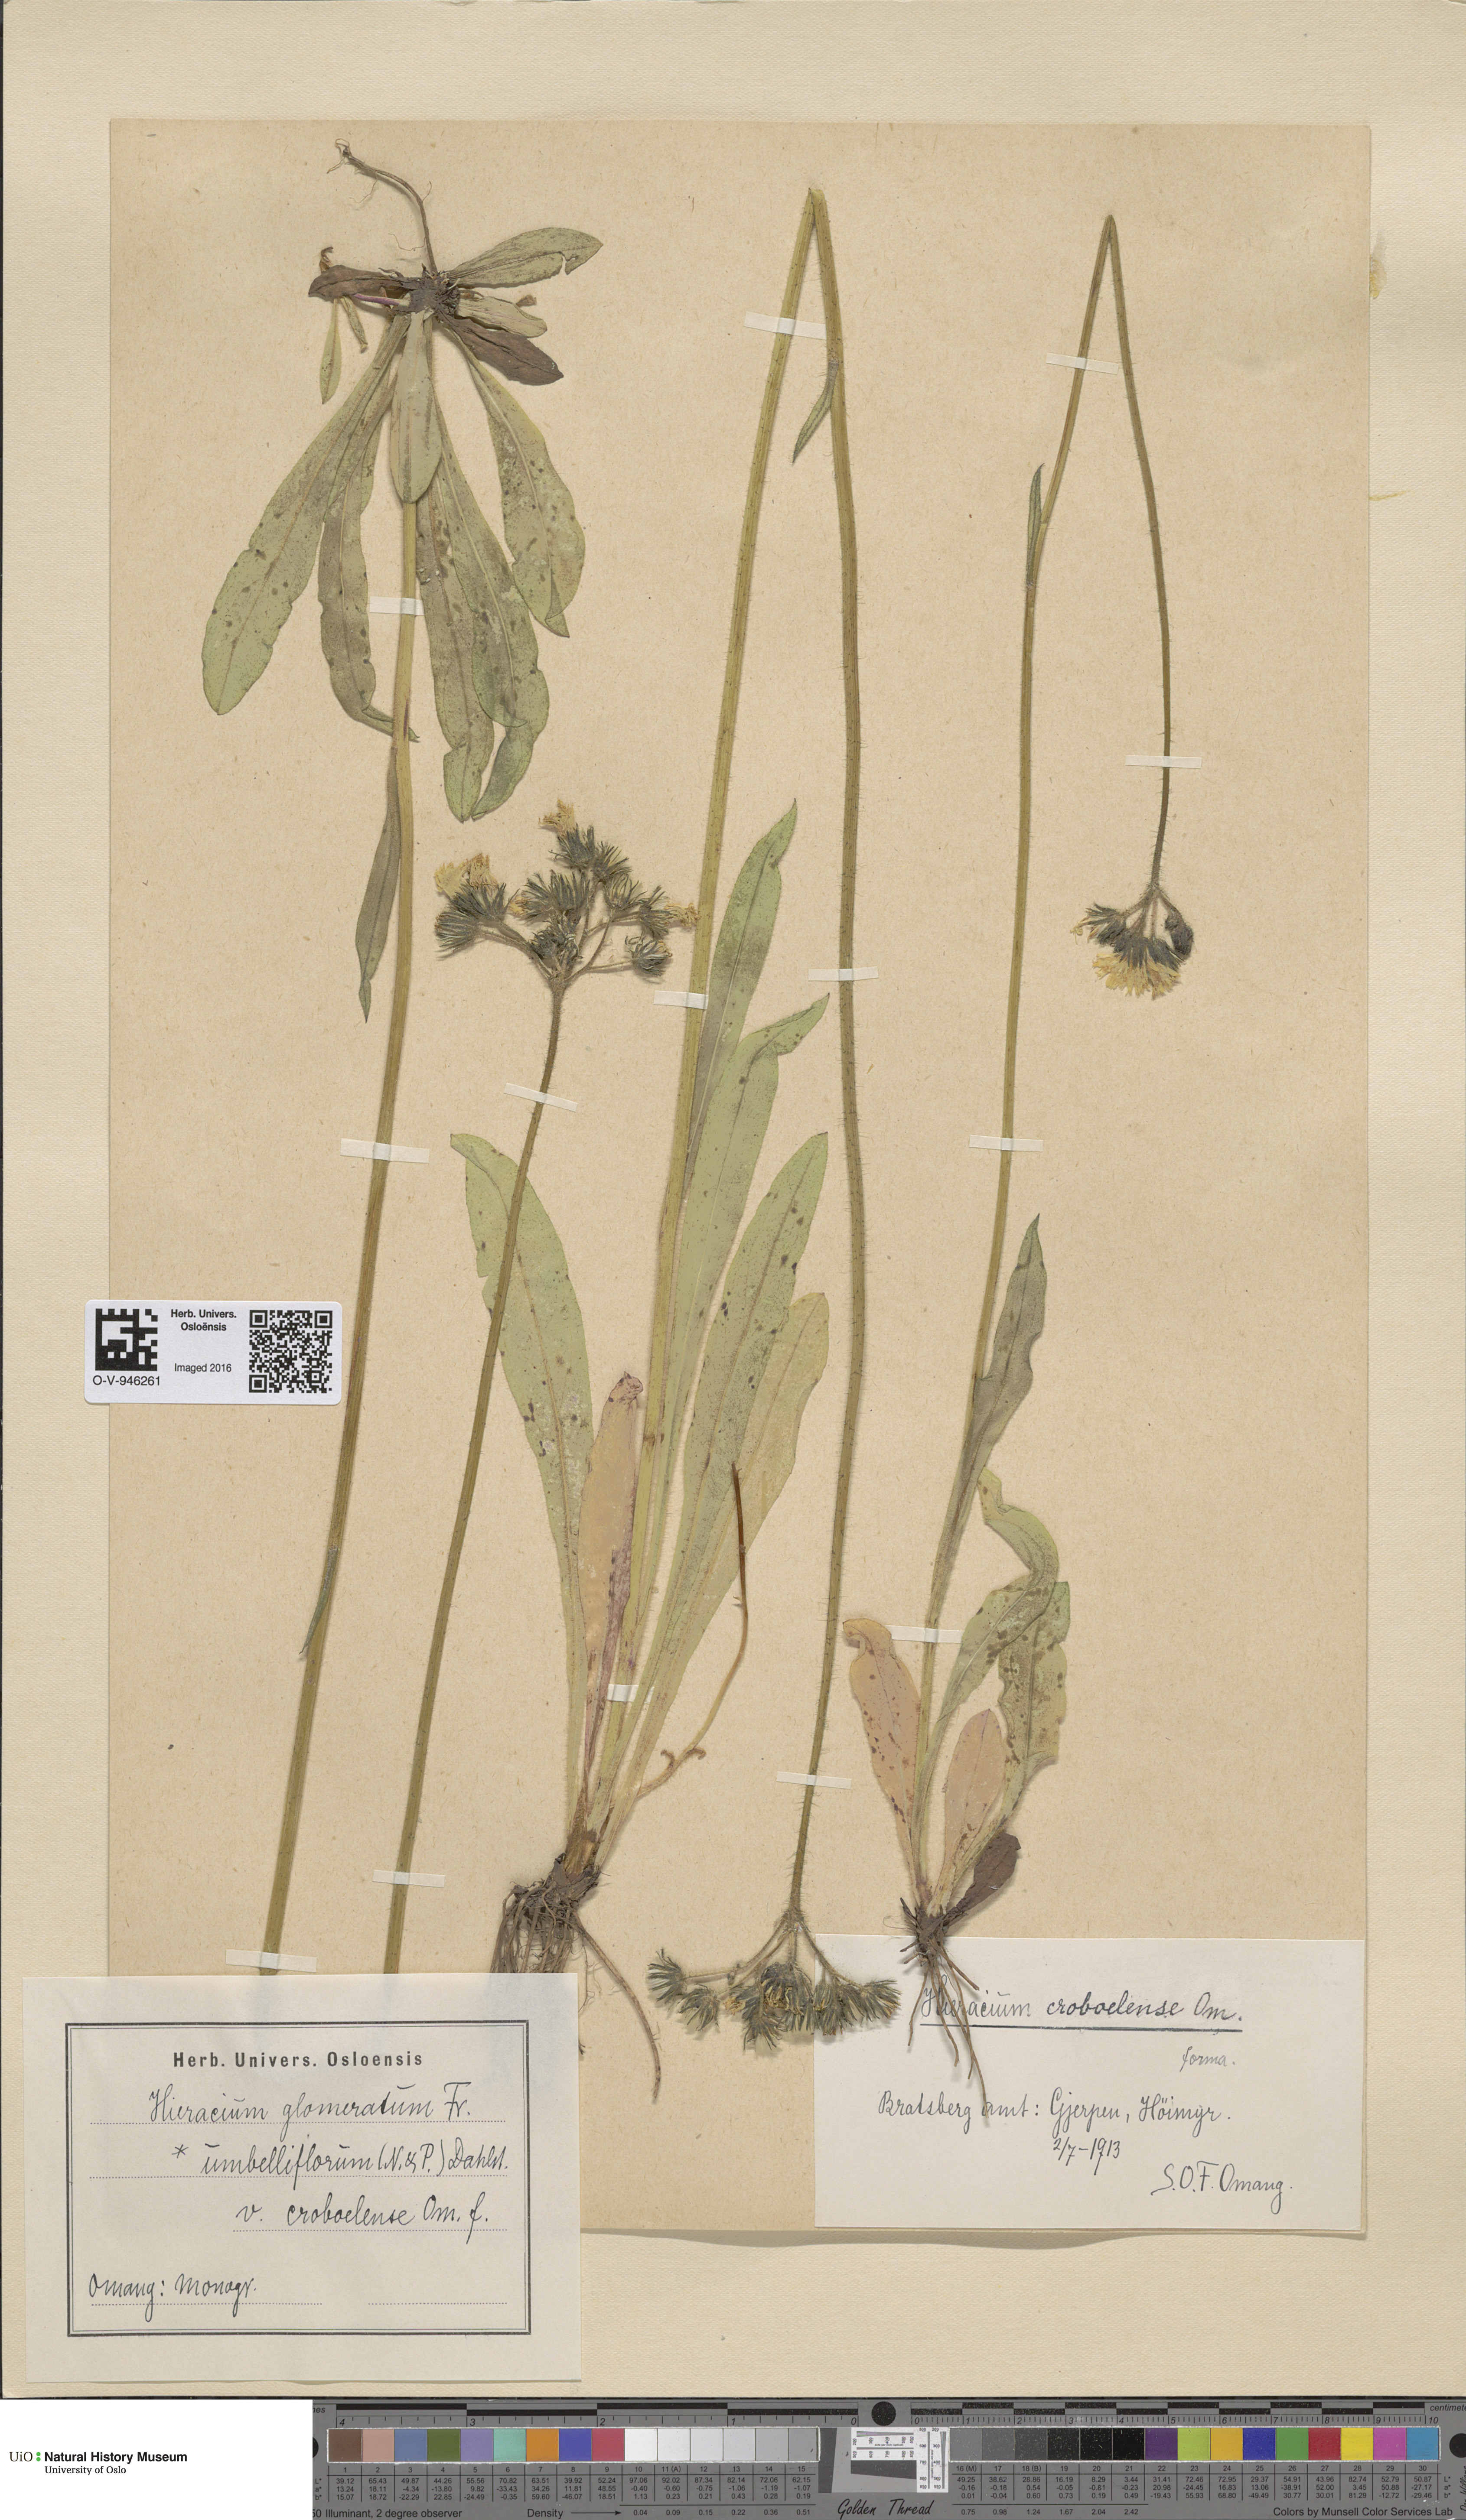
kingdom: Plantae
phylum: Tracheophyta
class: Magnoliopsida
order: Asterales
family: Asteraceae
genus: Pilosella
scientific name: Pilosella glomerata
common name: Queen devil hawkweed
